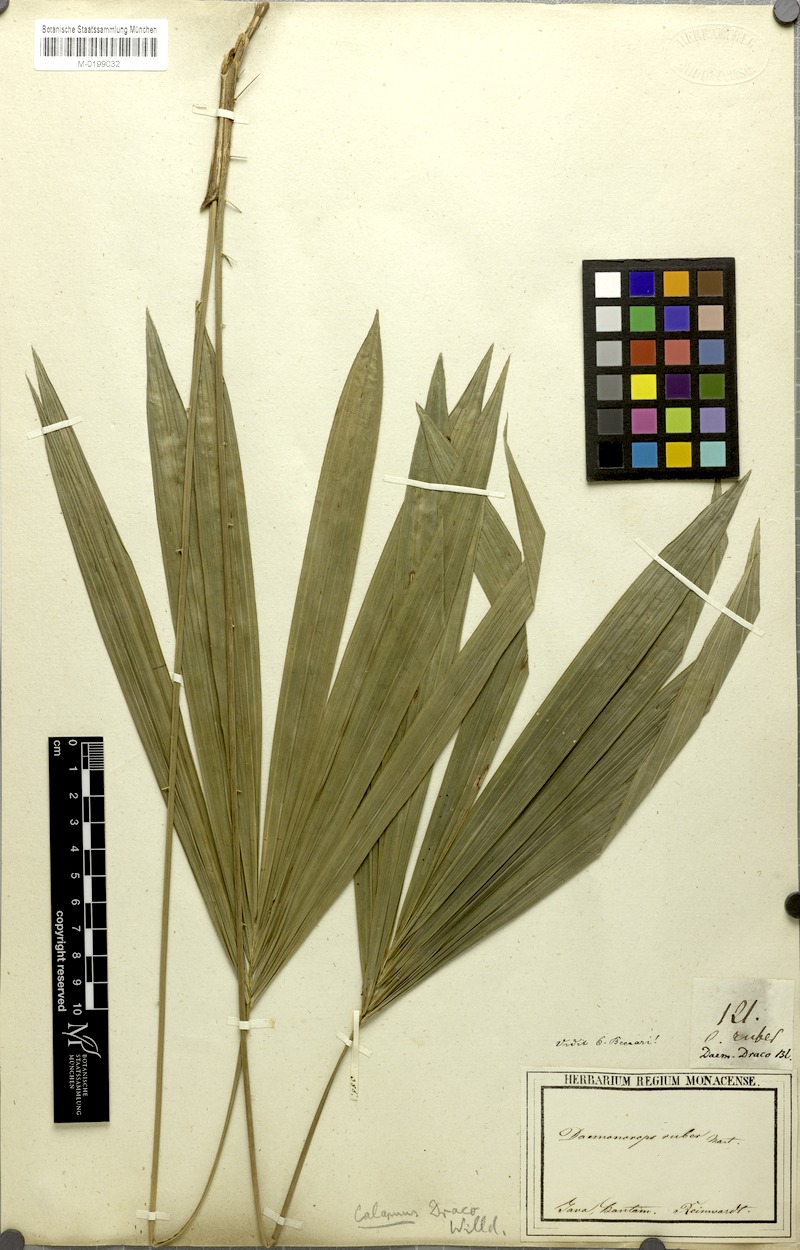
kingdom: Plantae
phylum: Tracheophyta
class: Liliopsida
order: Arecales
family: Arecaceae
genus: Calamus
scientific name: Calamus ruber
